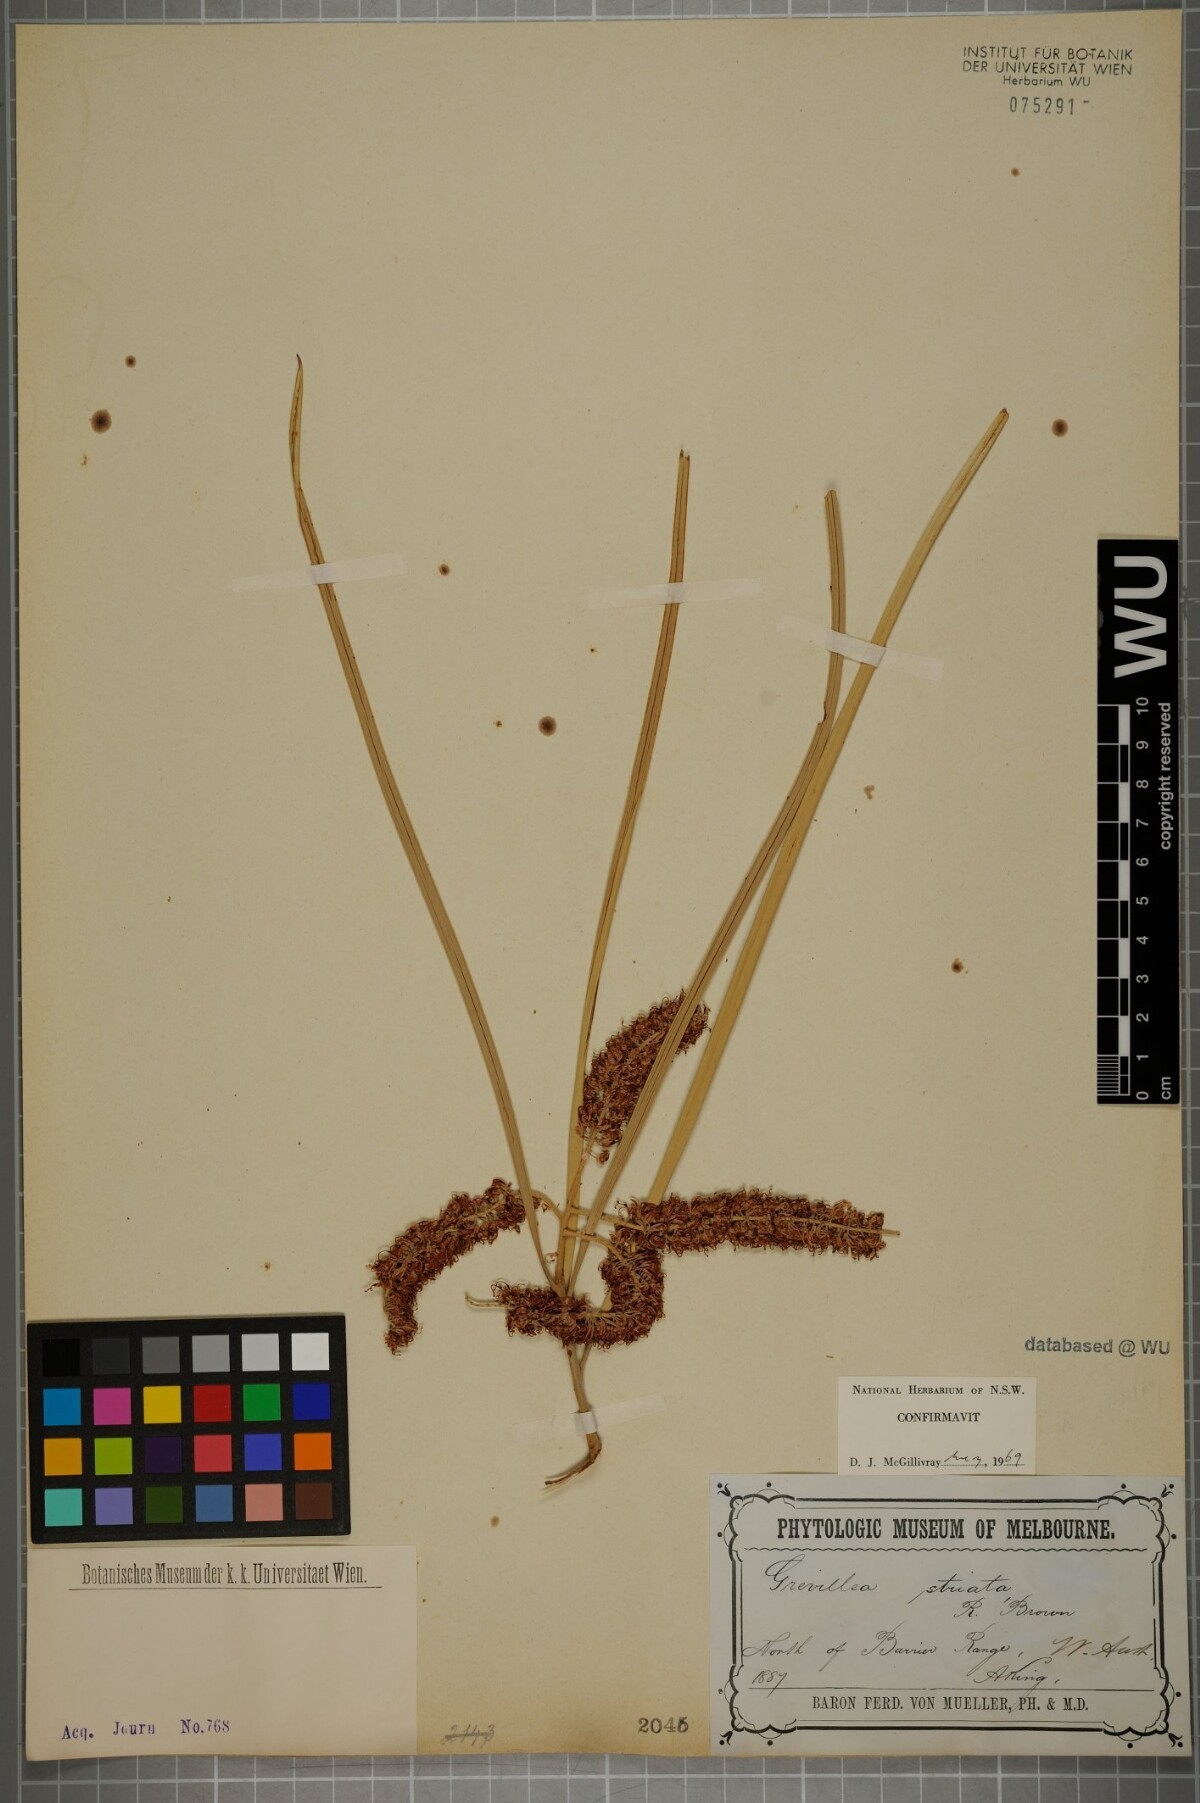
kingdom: Plantae
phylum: Tracheophyta
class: Magnoliopsida
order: Proteales
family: Proteaceae
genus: Grevillea
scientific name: Grevillea striata
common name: Beefwood
